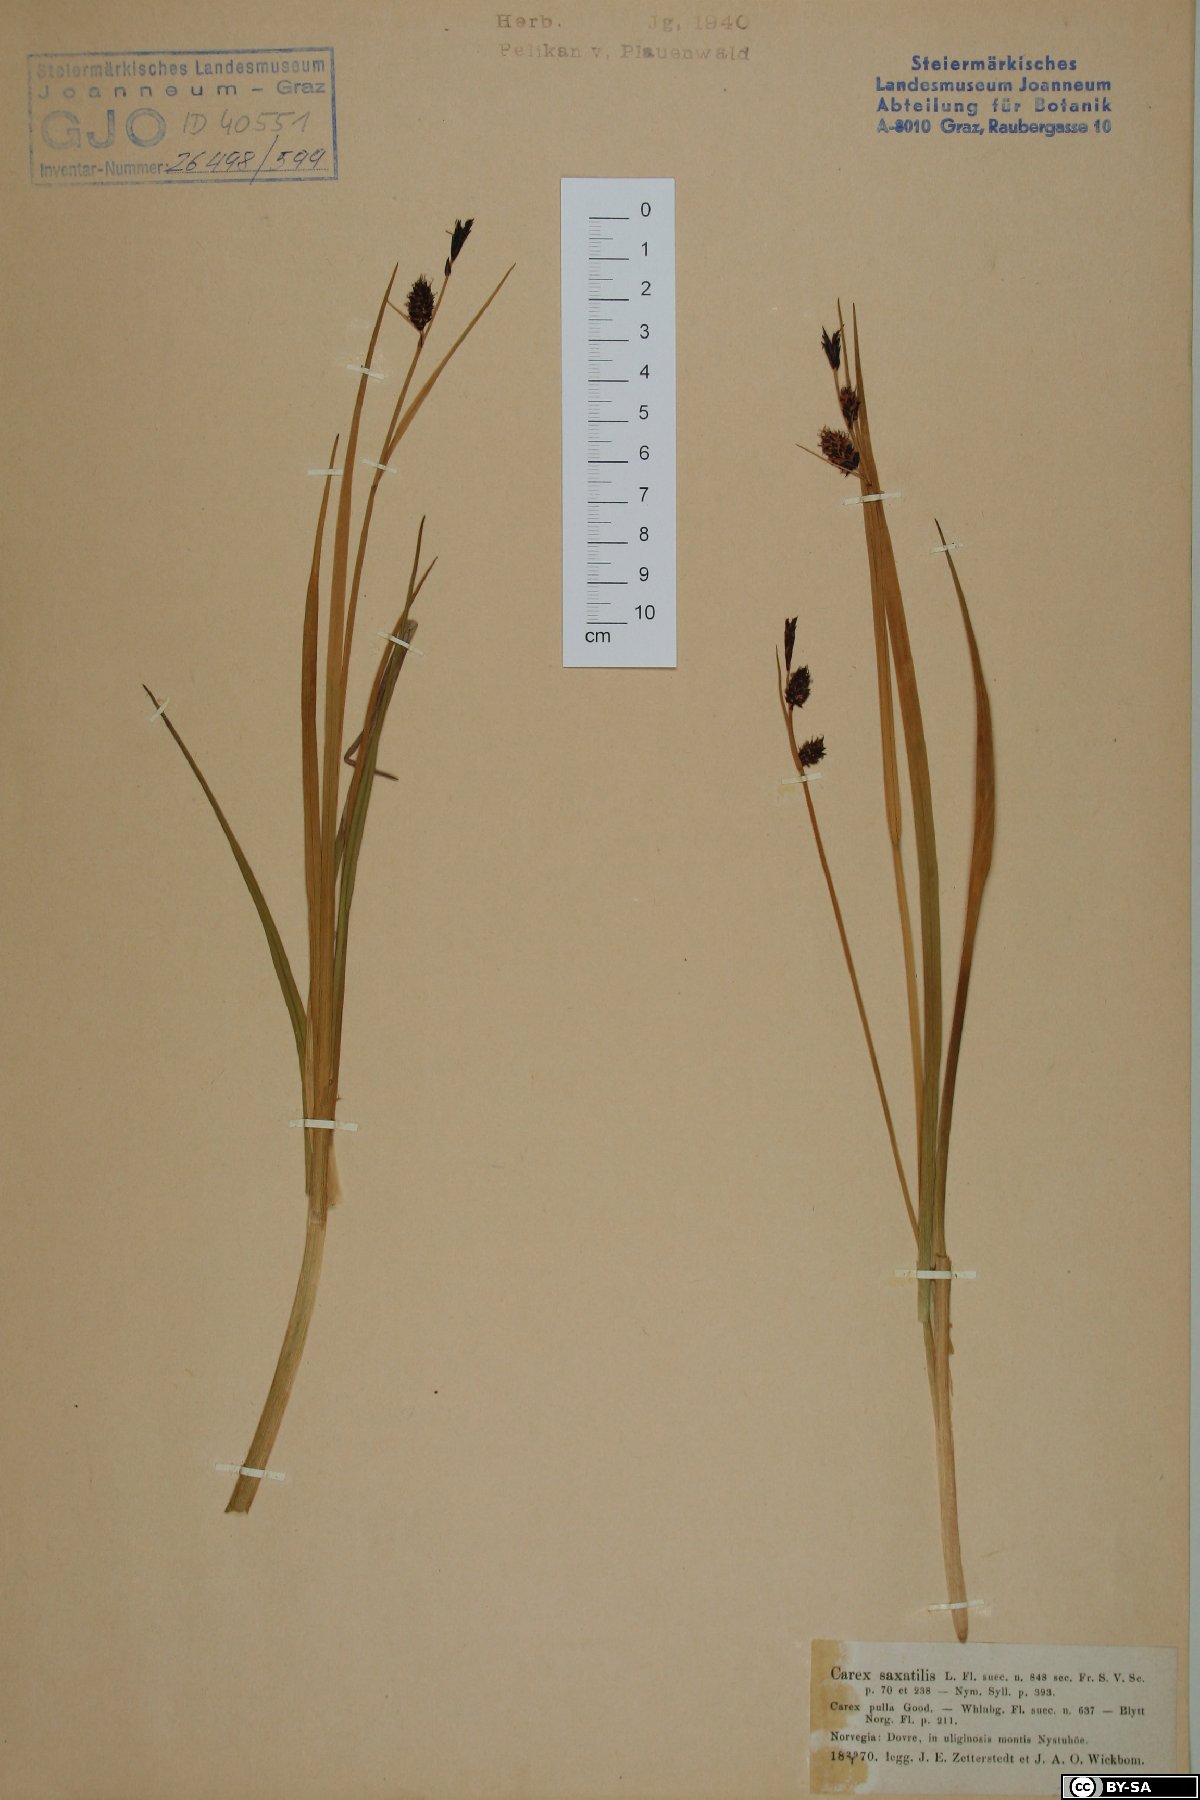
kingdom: Plantae
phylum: Tracheophyta
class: Liliopsida
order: Poales
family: Cyperaceae
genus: Carex
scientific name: Carex saxatilis
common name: Russet sedge
